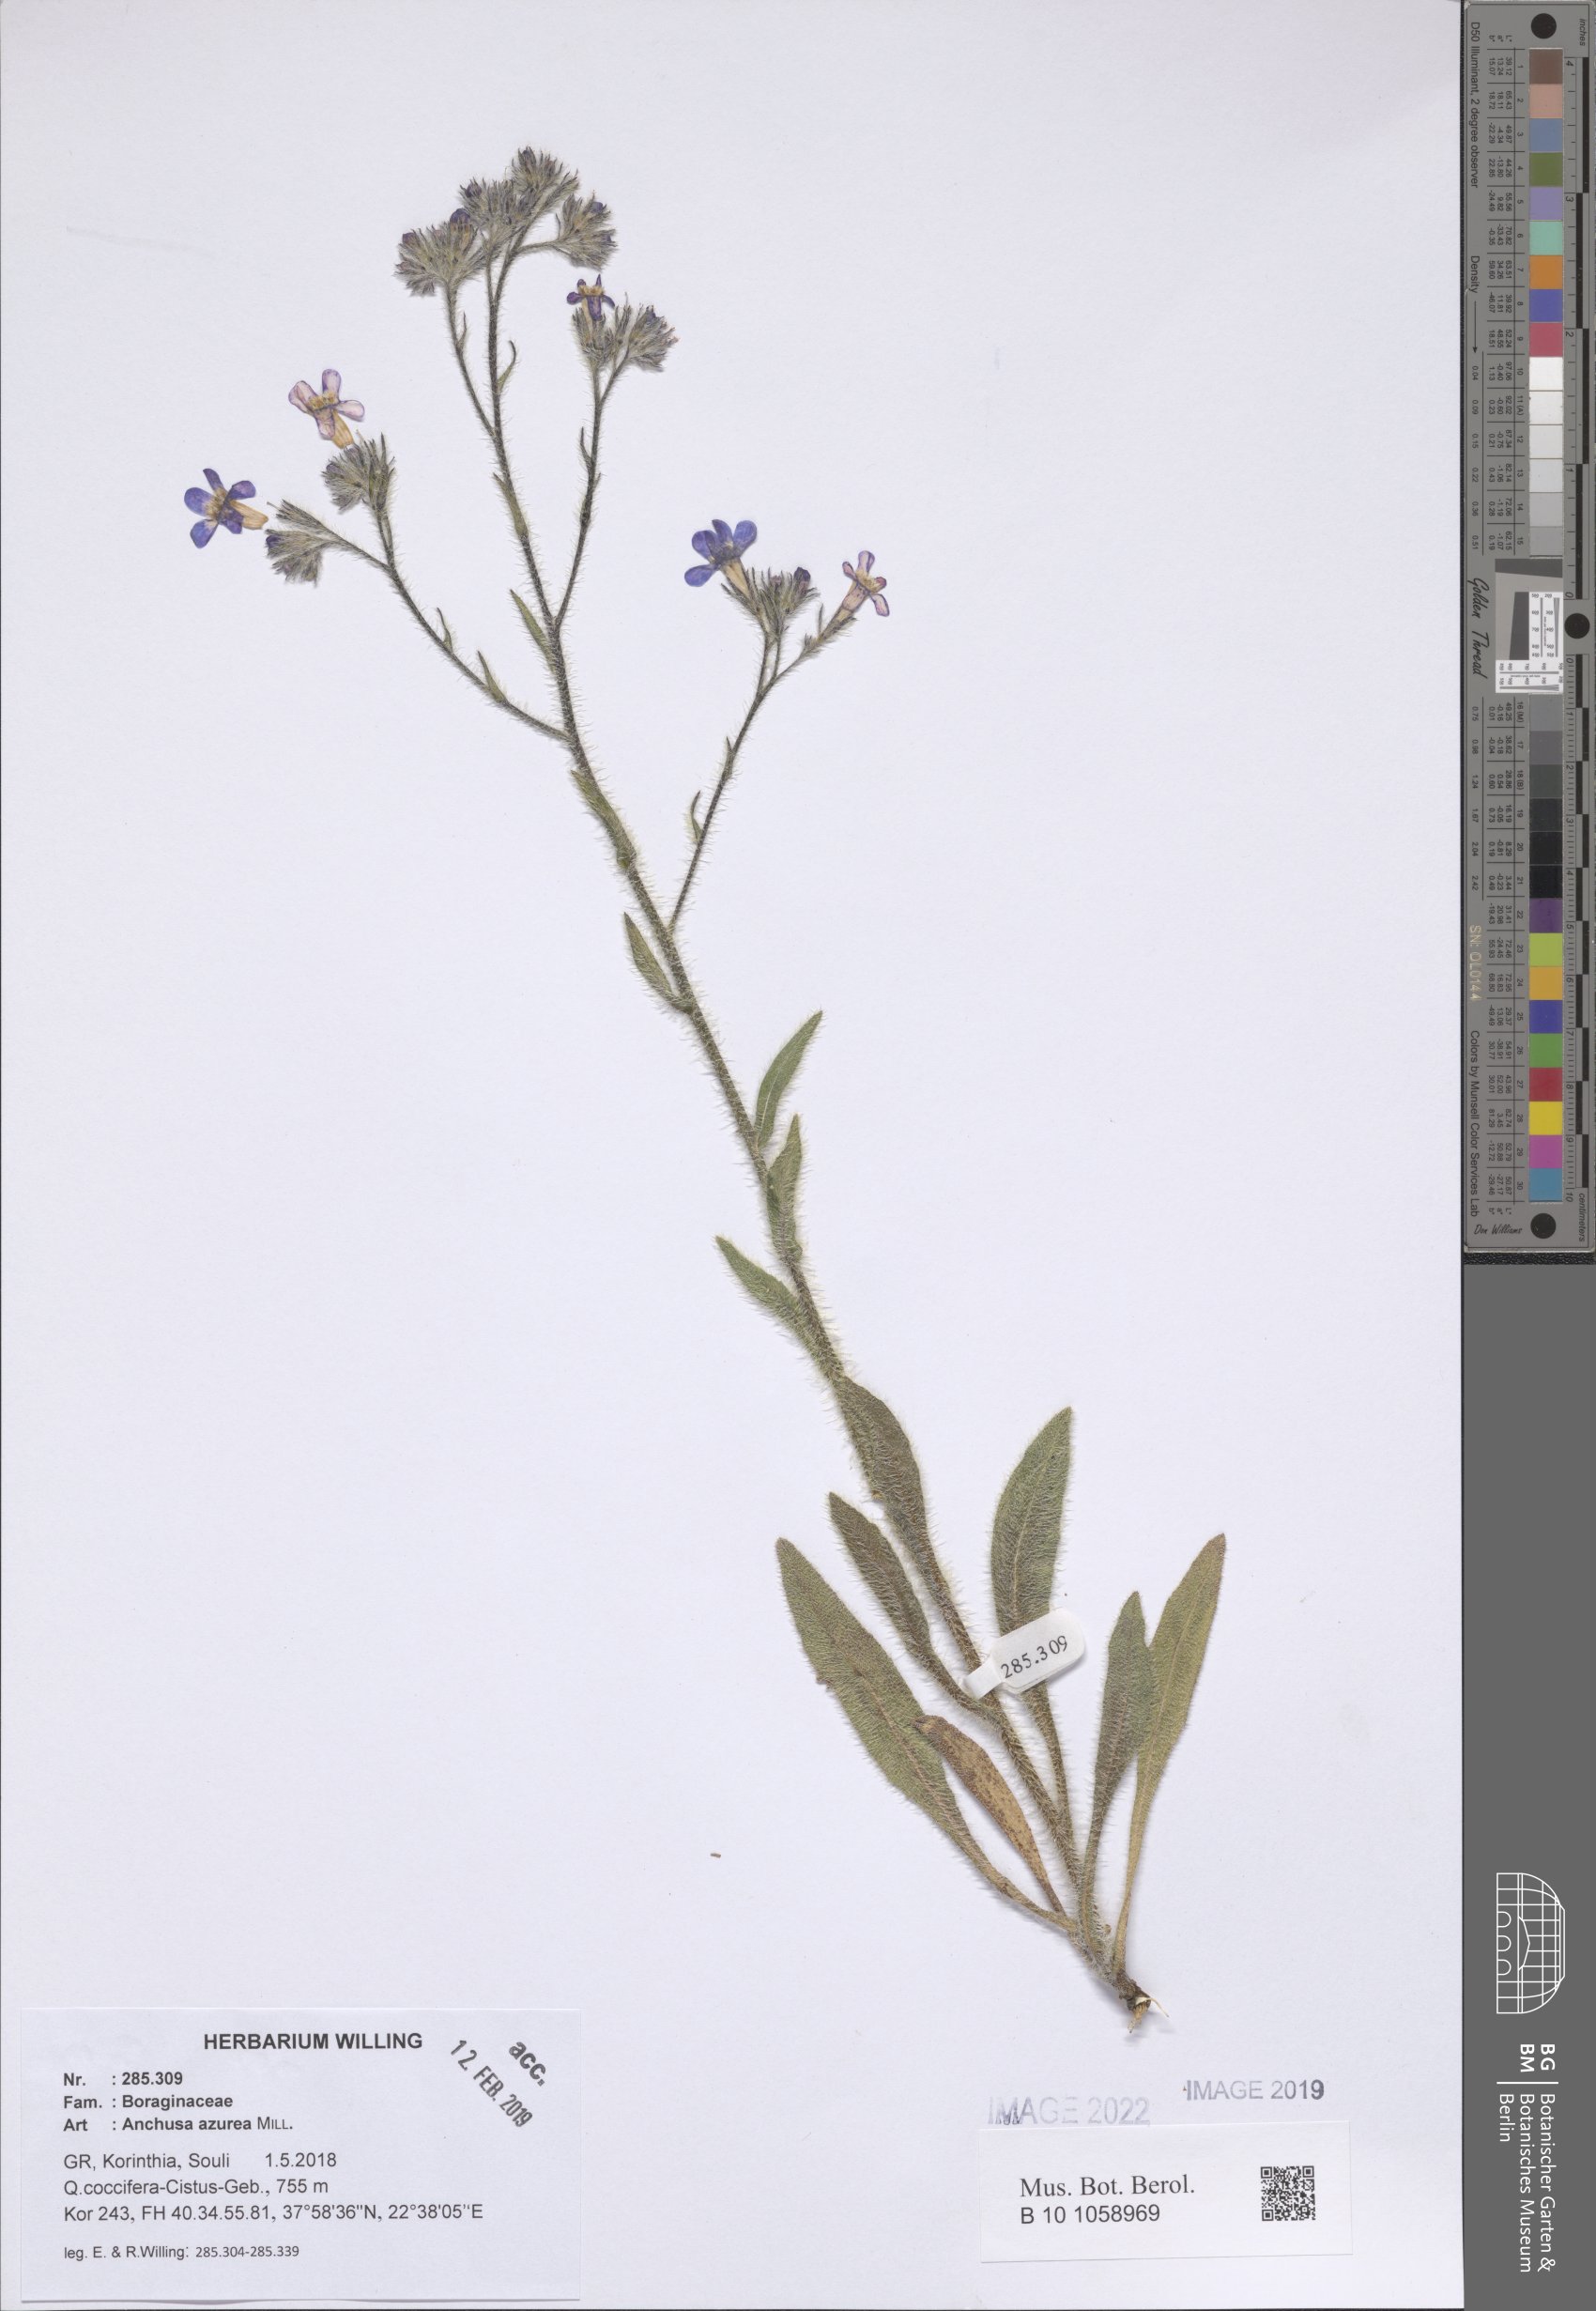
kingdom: Plantae
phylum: Tracheophyta
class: Magnoliopsida
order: Boraginales
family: Boraginaceae
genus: Anchusa
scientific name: Anchusa azurea
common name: Garden anchusa
